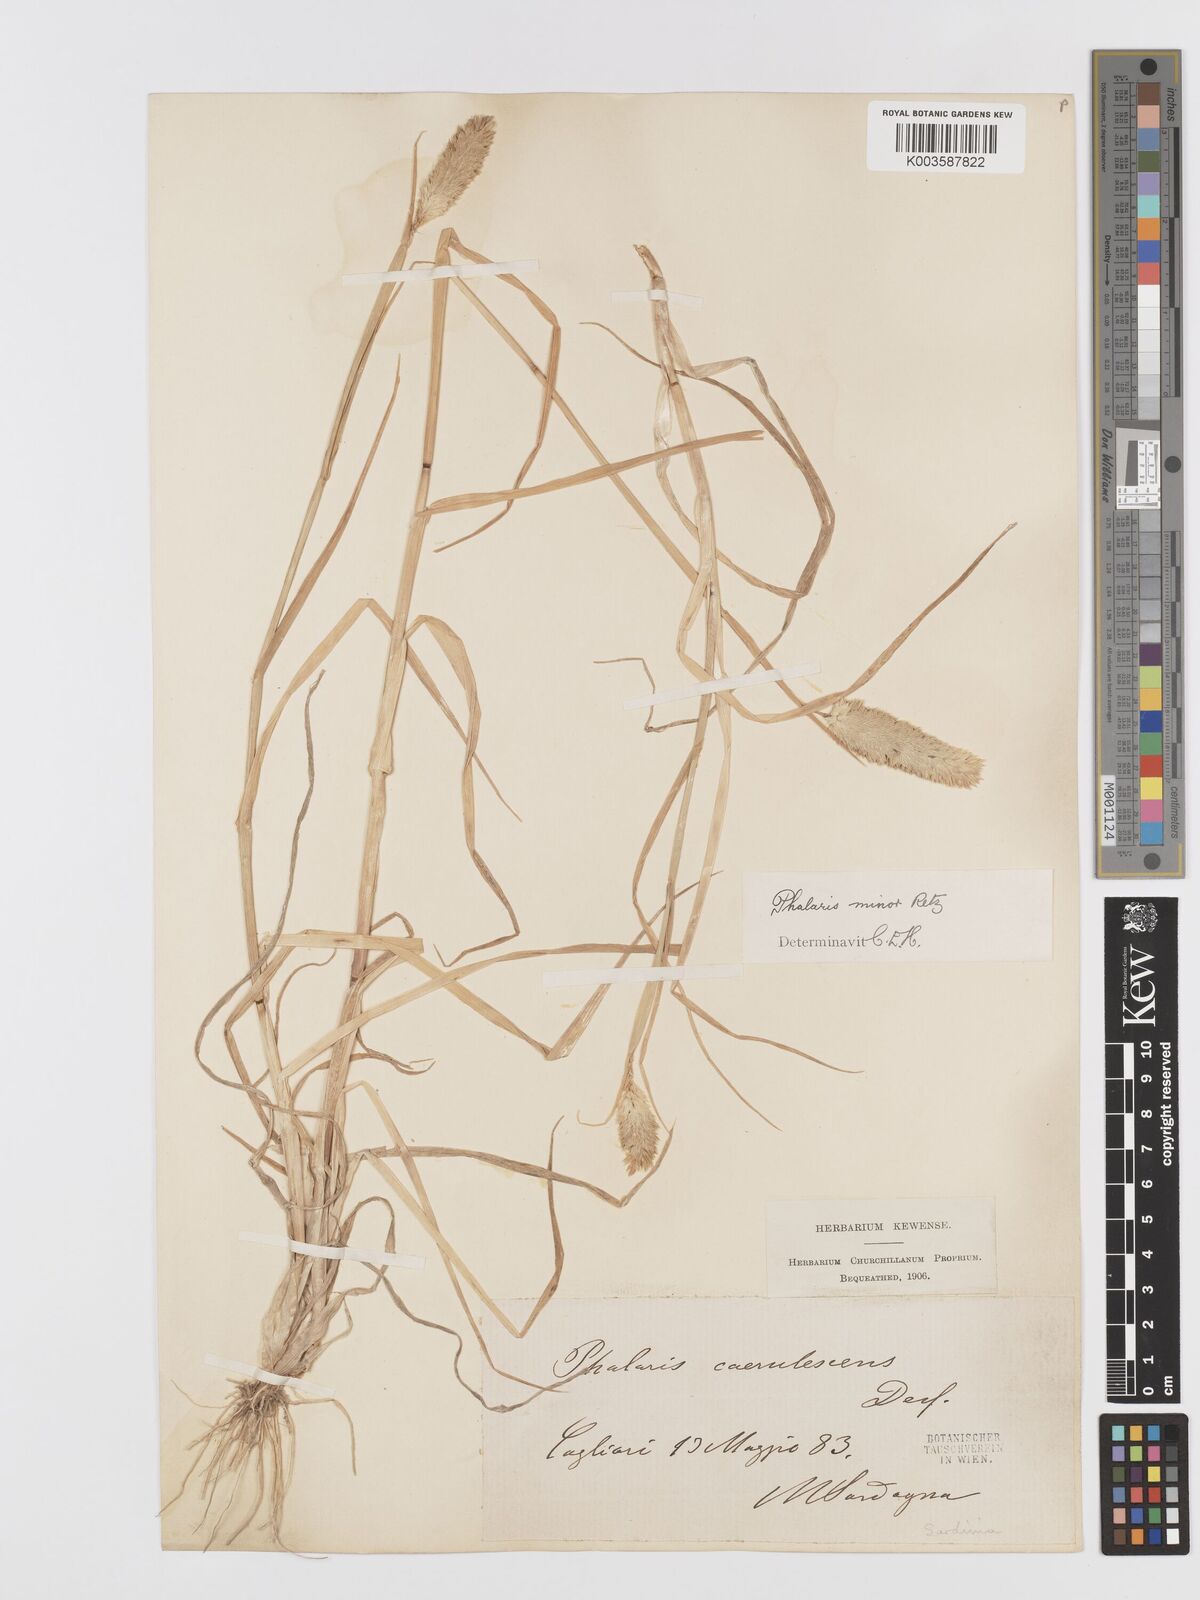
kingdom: Plantae
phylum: Tracheophyta
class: Liliopsida
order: Poales
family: Poaceae
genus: Phalaris
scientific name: Phalaris minor
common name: Littleseed canarygrass
